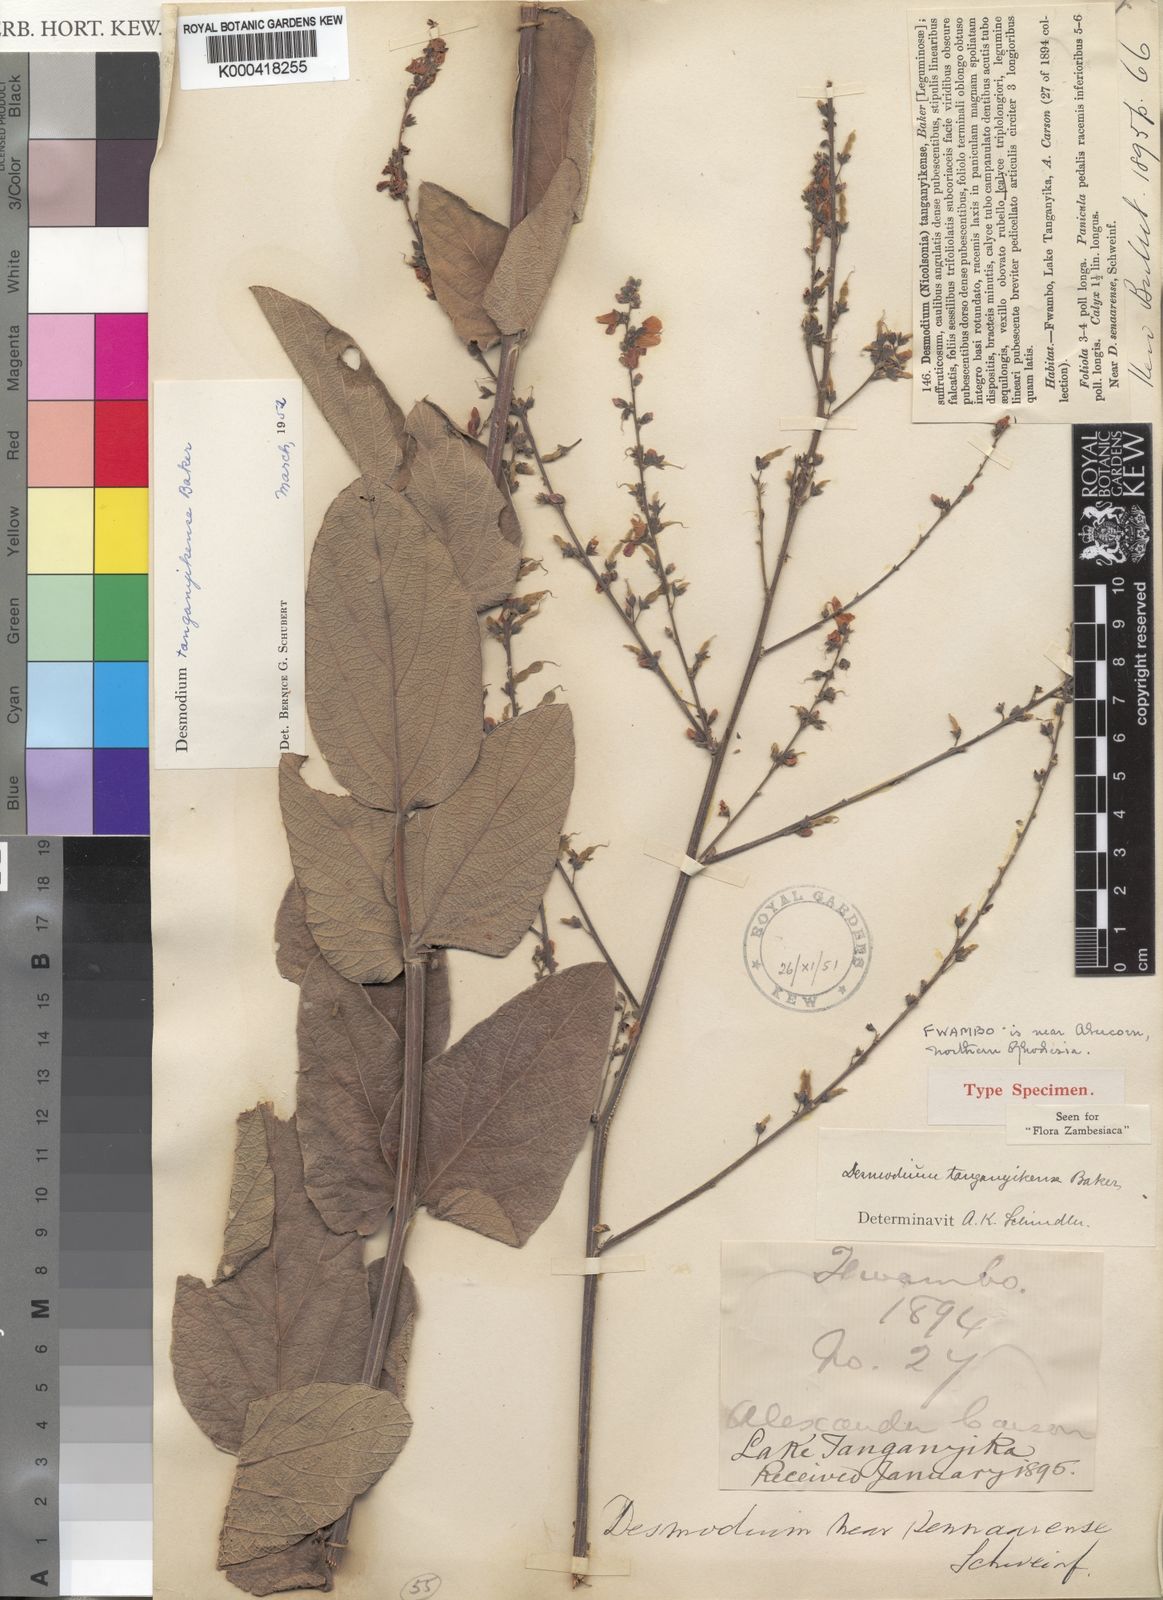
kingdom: Plantae
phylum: Tracheophyta
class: Magnoliopsida
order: Fabales
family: Fabaceae
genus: Pleurolobus
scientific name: Pleurolobus tanganyikensis
